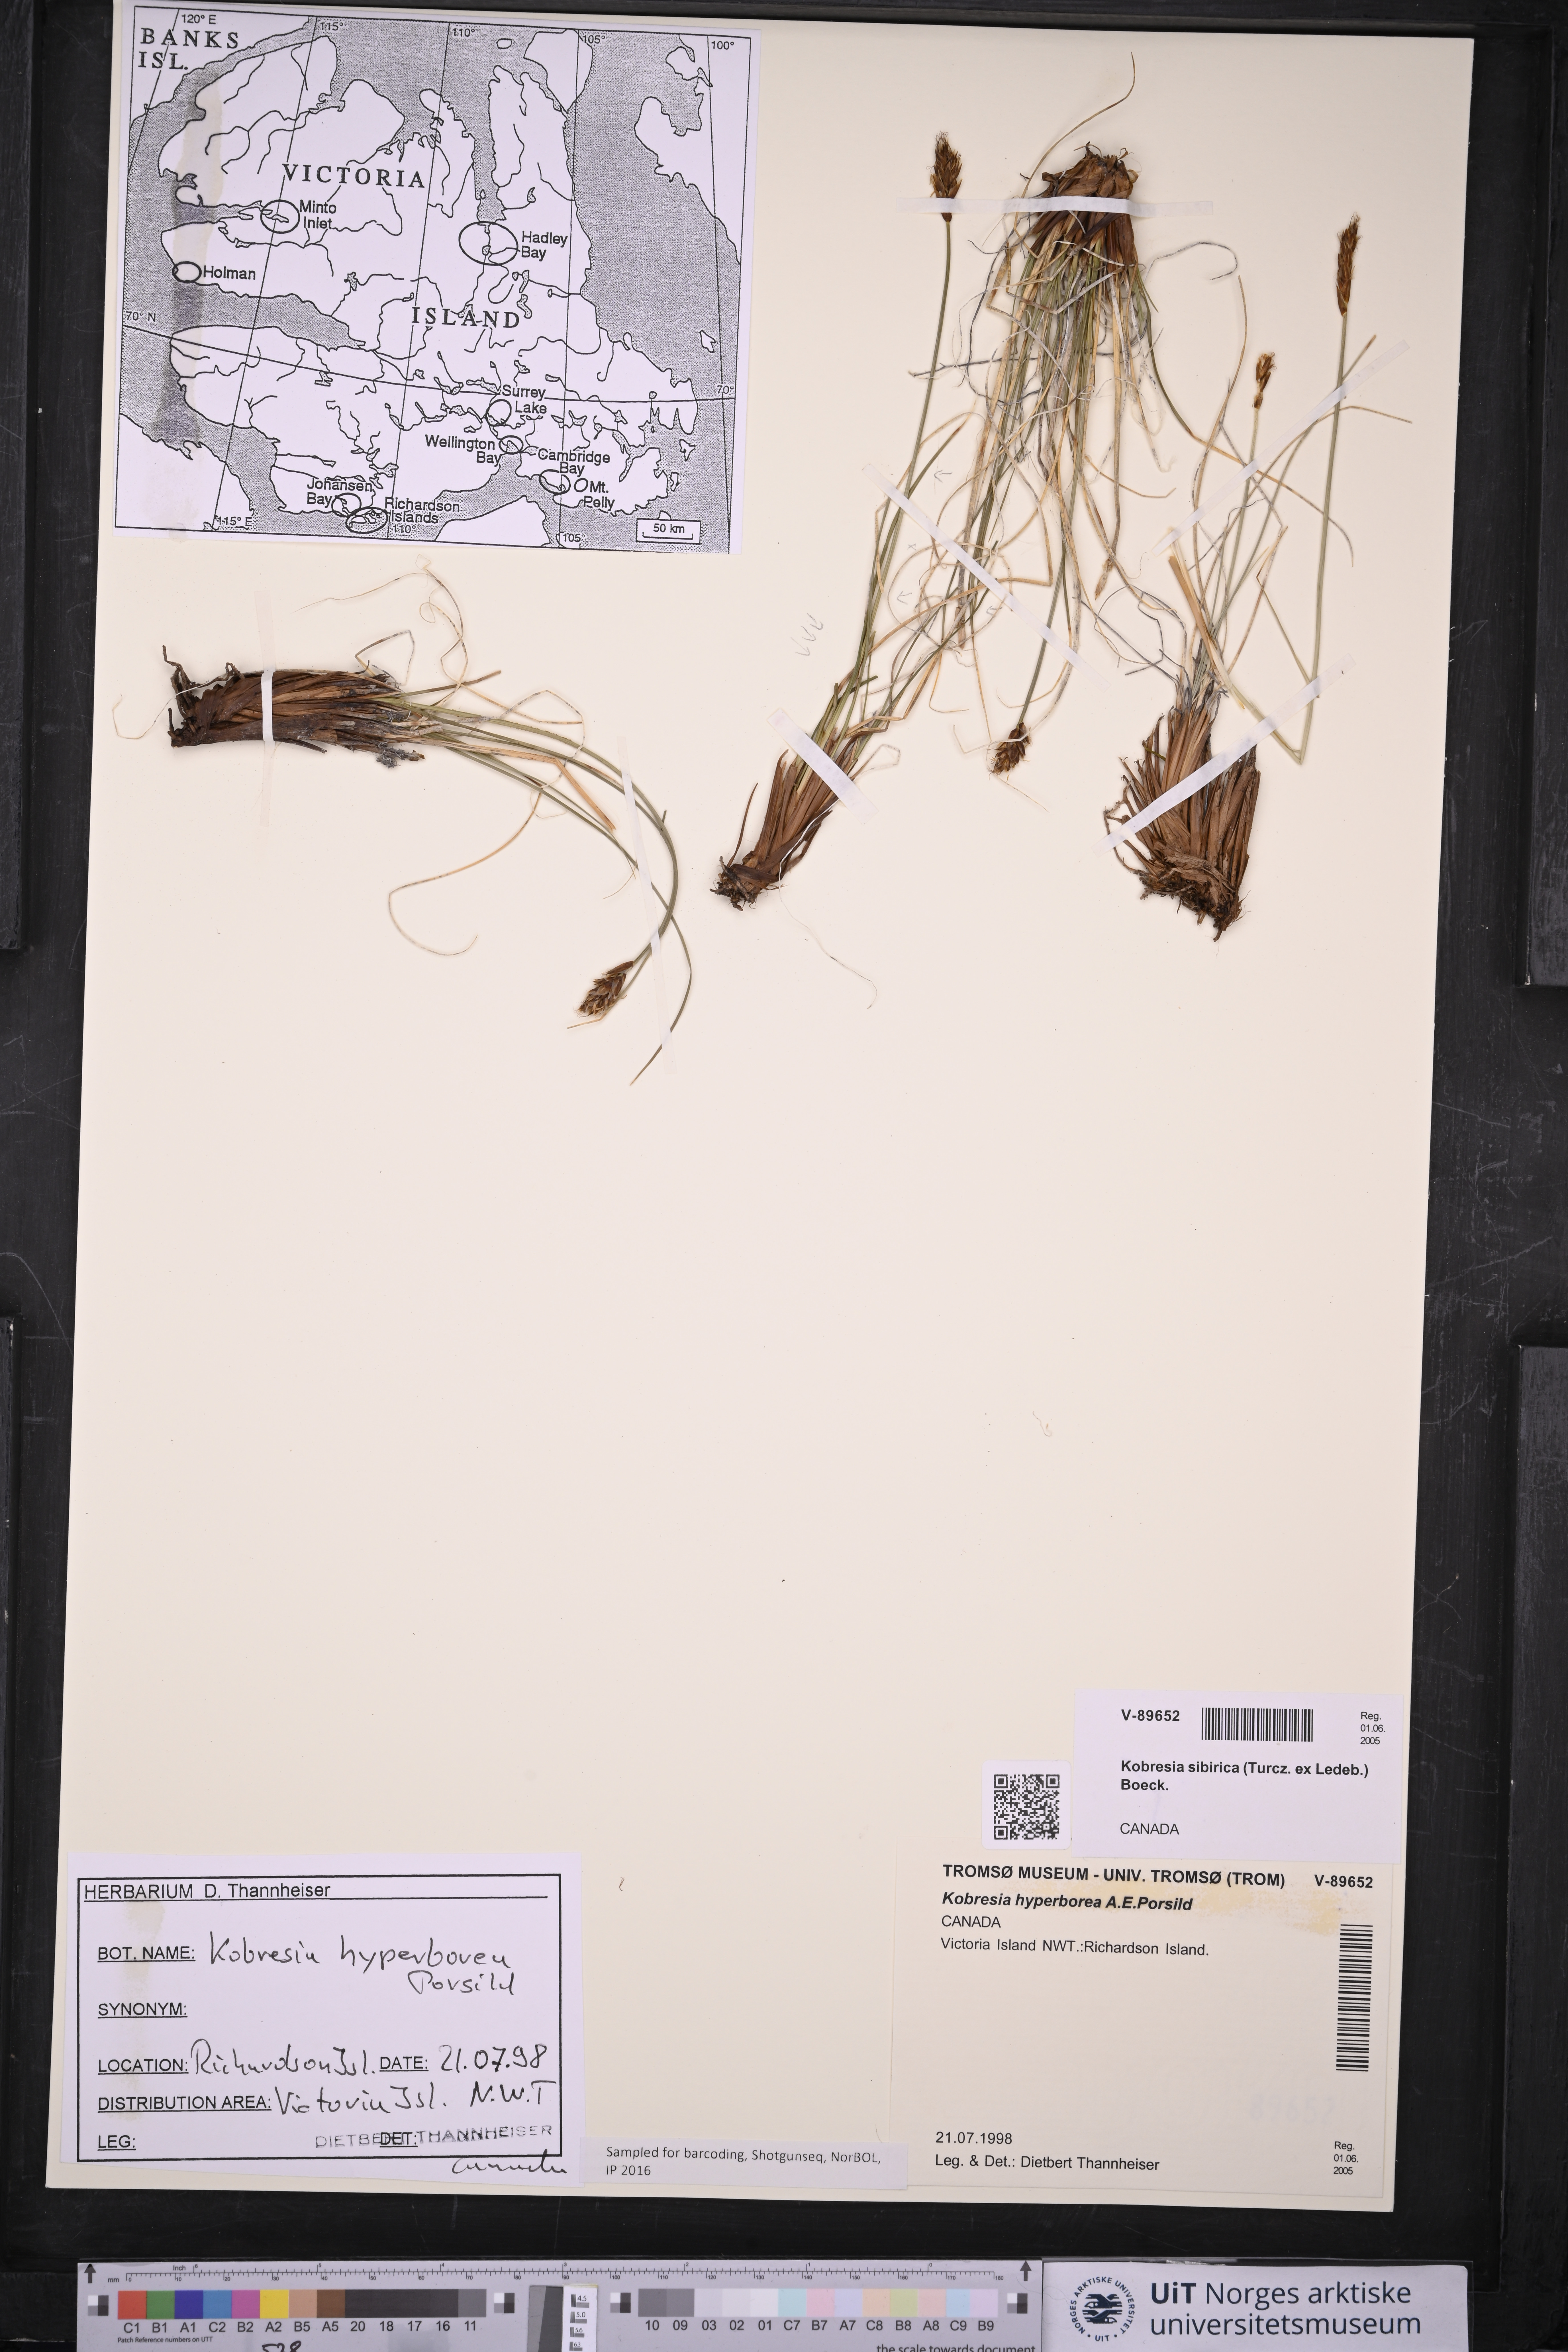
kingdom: Plantae
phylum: Tracheophyta
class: Liliopsida
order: Poales
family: Cyperaceae
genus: Carex
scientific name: Carex macroprophylla
